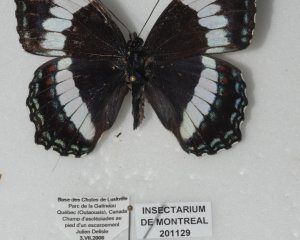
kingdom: Animalia
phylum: Arthropoda
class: Insecta
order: Lepidoptera
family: Nymphalidae
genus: Limenitis
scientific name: Limenitis arthemis
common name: Red-spotted Admiral
